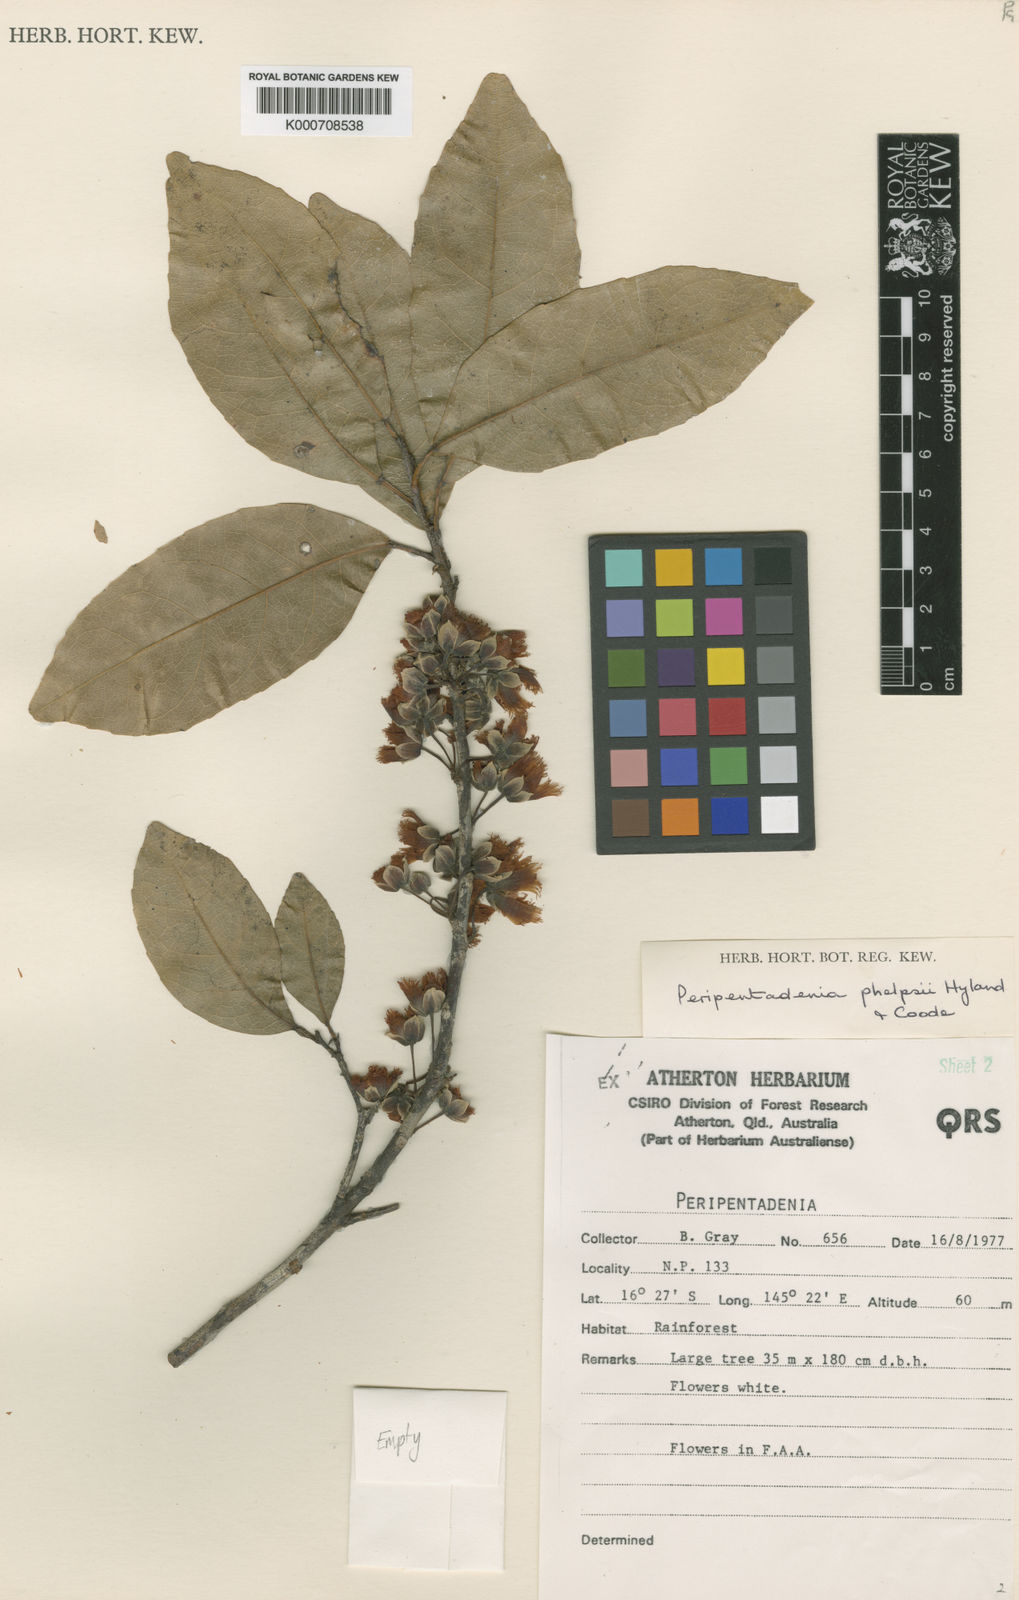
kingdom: Plantae
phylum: Tracheophyta
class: Magnoliopsida
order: Oxalidales
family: Elaeocarpaceae
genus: Peripentadenia
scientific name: Peripentadenia phelpsii
